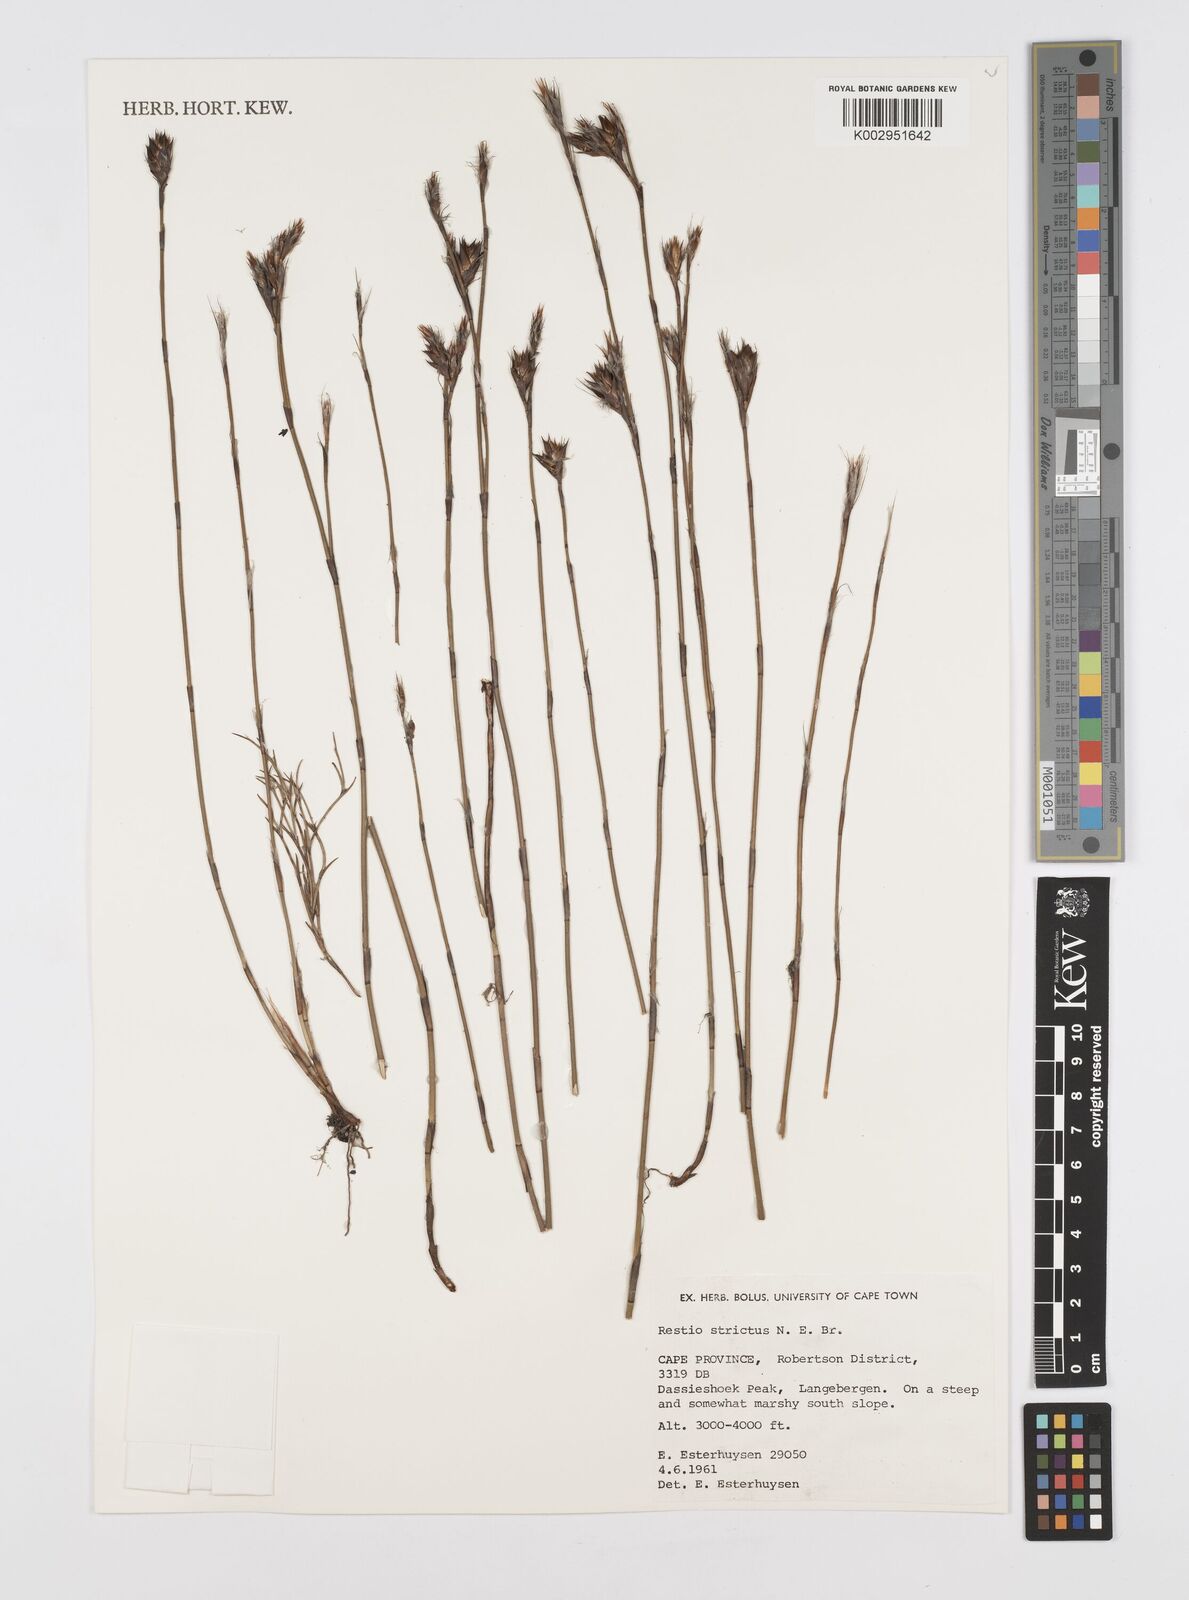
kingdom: Plantae
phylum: Tracheophyta
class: Liliopsida
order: Poales
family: Restionaceae
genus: Restio
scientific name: Restio strictus
